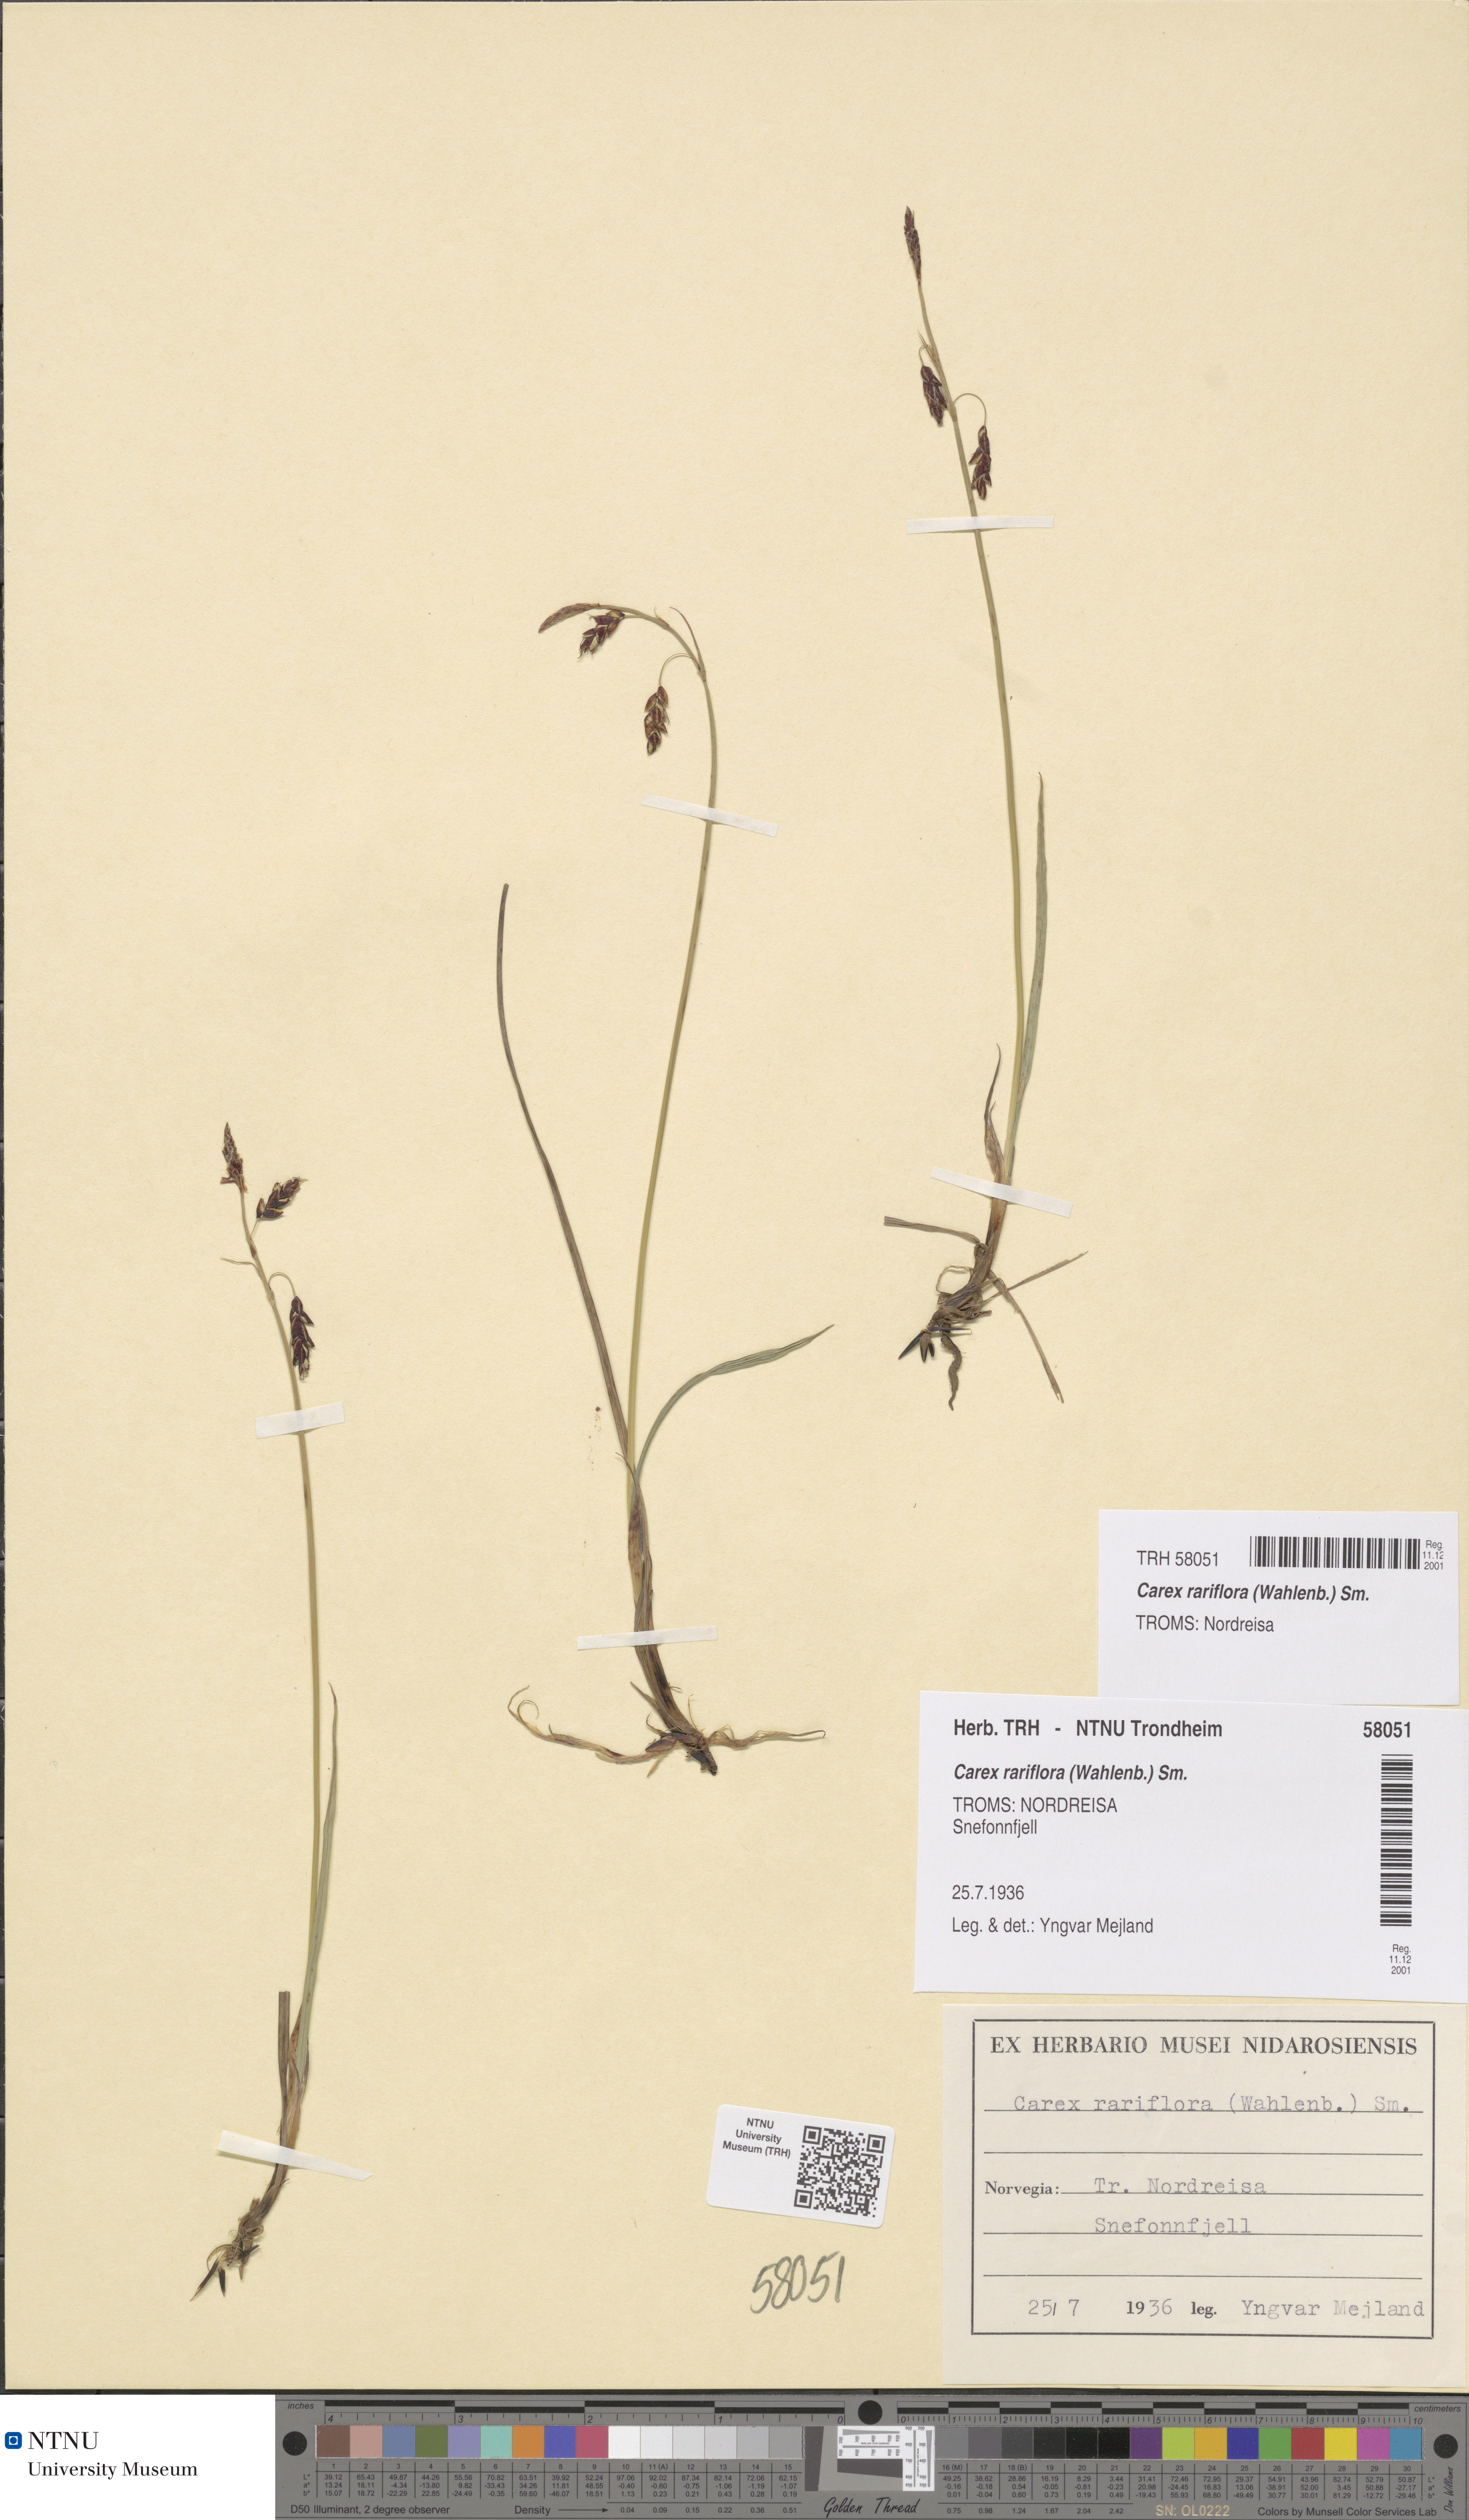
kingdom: Plantae
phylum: Tracheophyta
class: Liliopsida
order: Poales
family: Cyperaceae
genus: Carex
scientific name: Carex rariflora
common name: Loose-flowered alpine sedge
